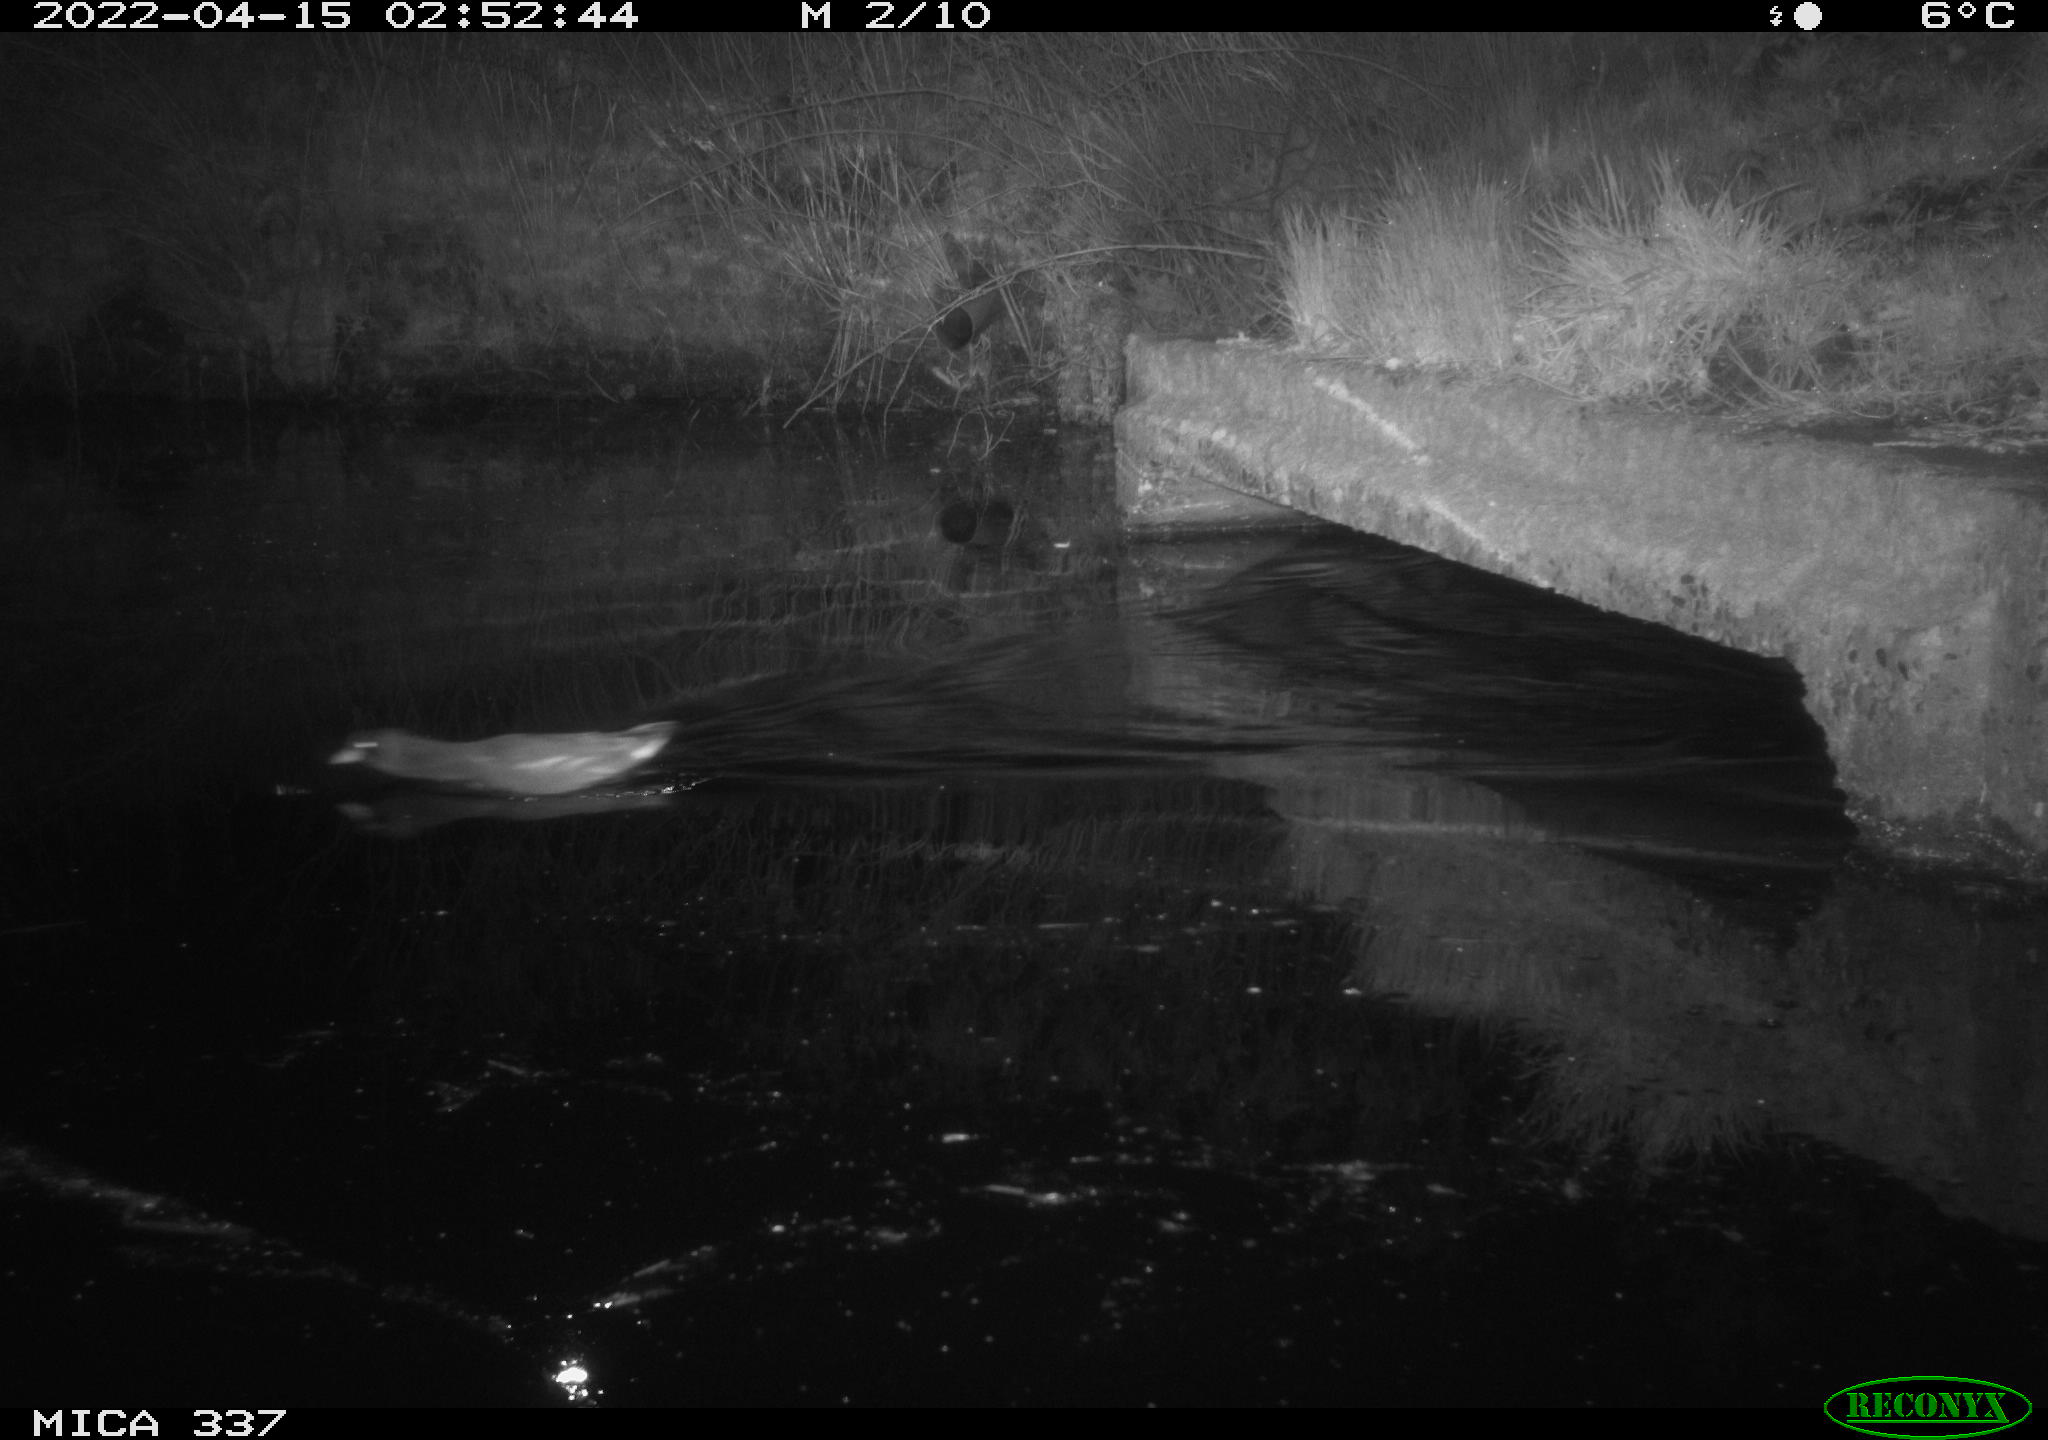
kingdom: Animalia
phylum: Chordata
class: Aves
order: Gruiformes
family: Rallidae
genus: Gallinula
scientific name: Gallinula chloropus
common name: Common moorhen
